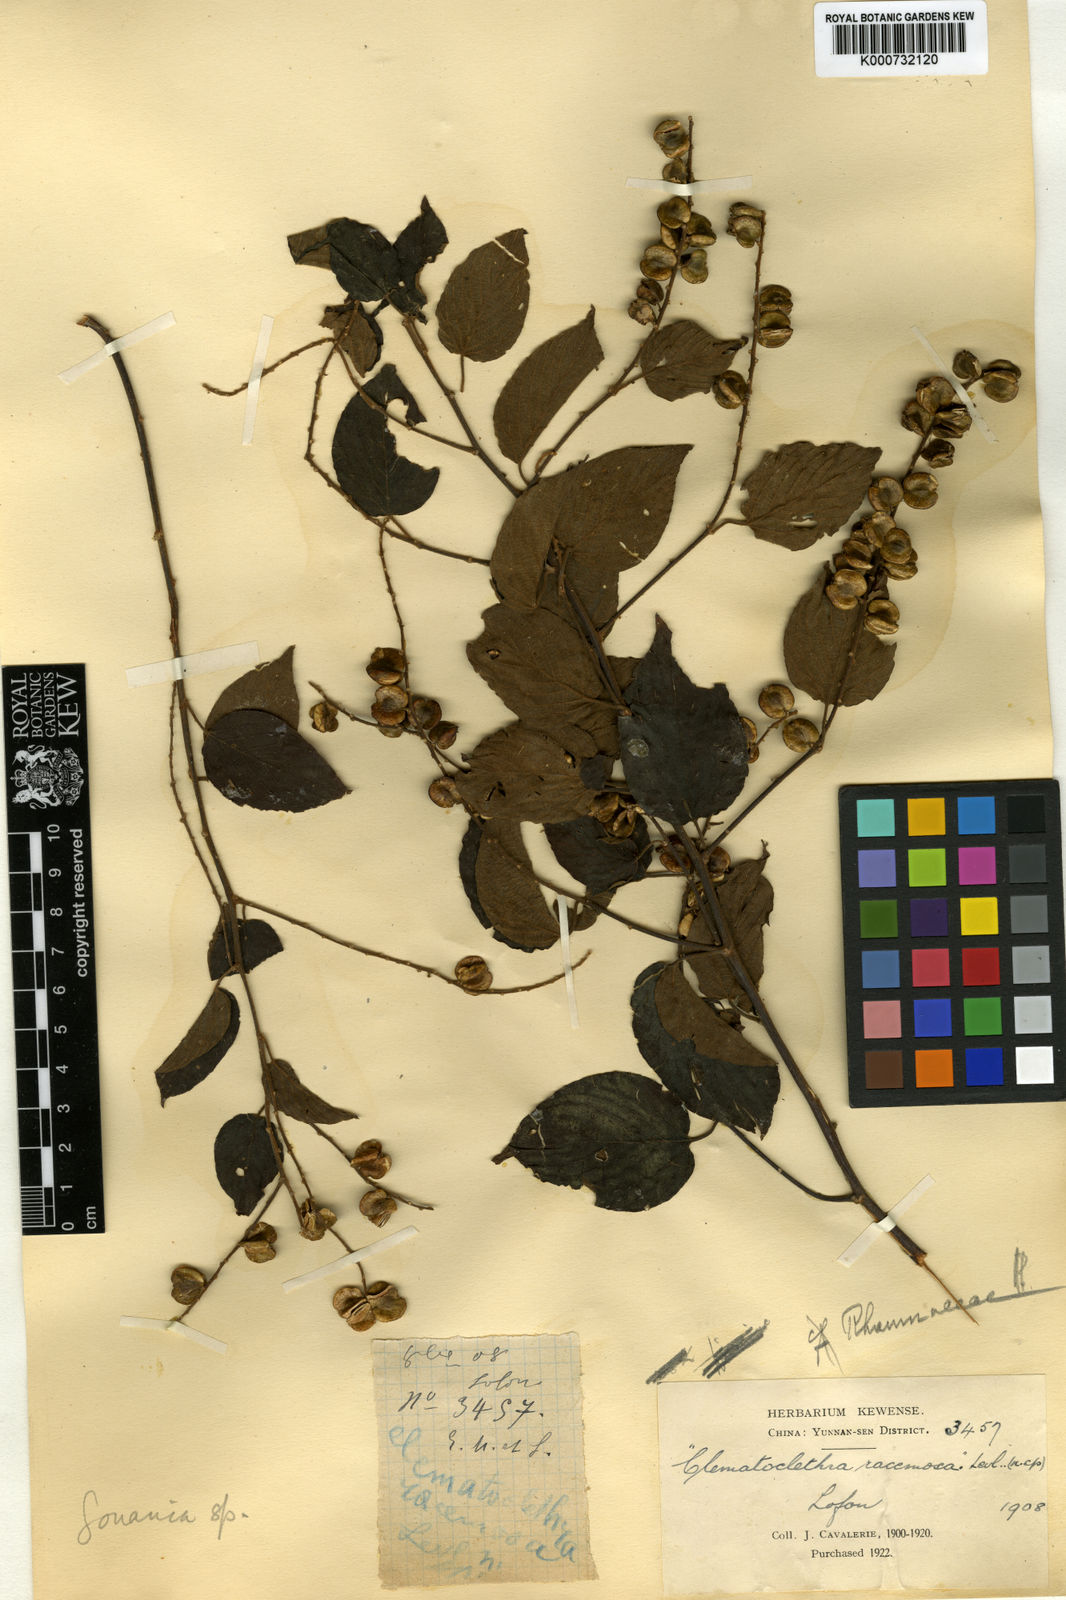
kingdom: Plantae
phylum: Tracheophyta
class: Magnoliopsida
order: Rosales
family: Rhamnaceae
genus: Gouania
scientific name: Gouania
